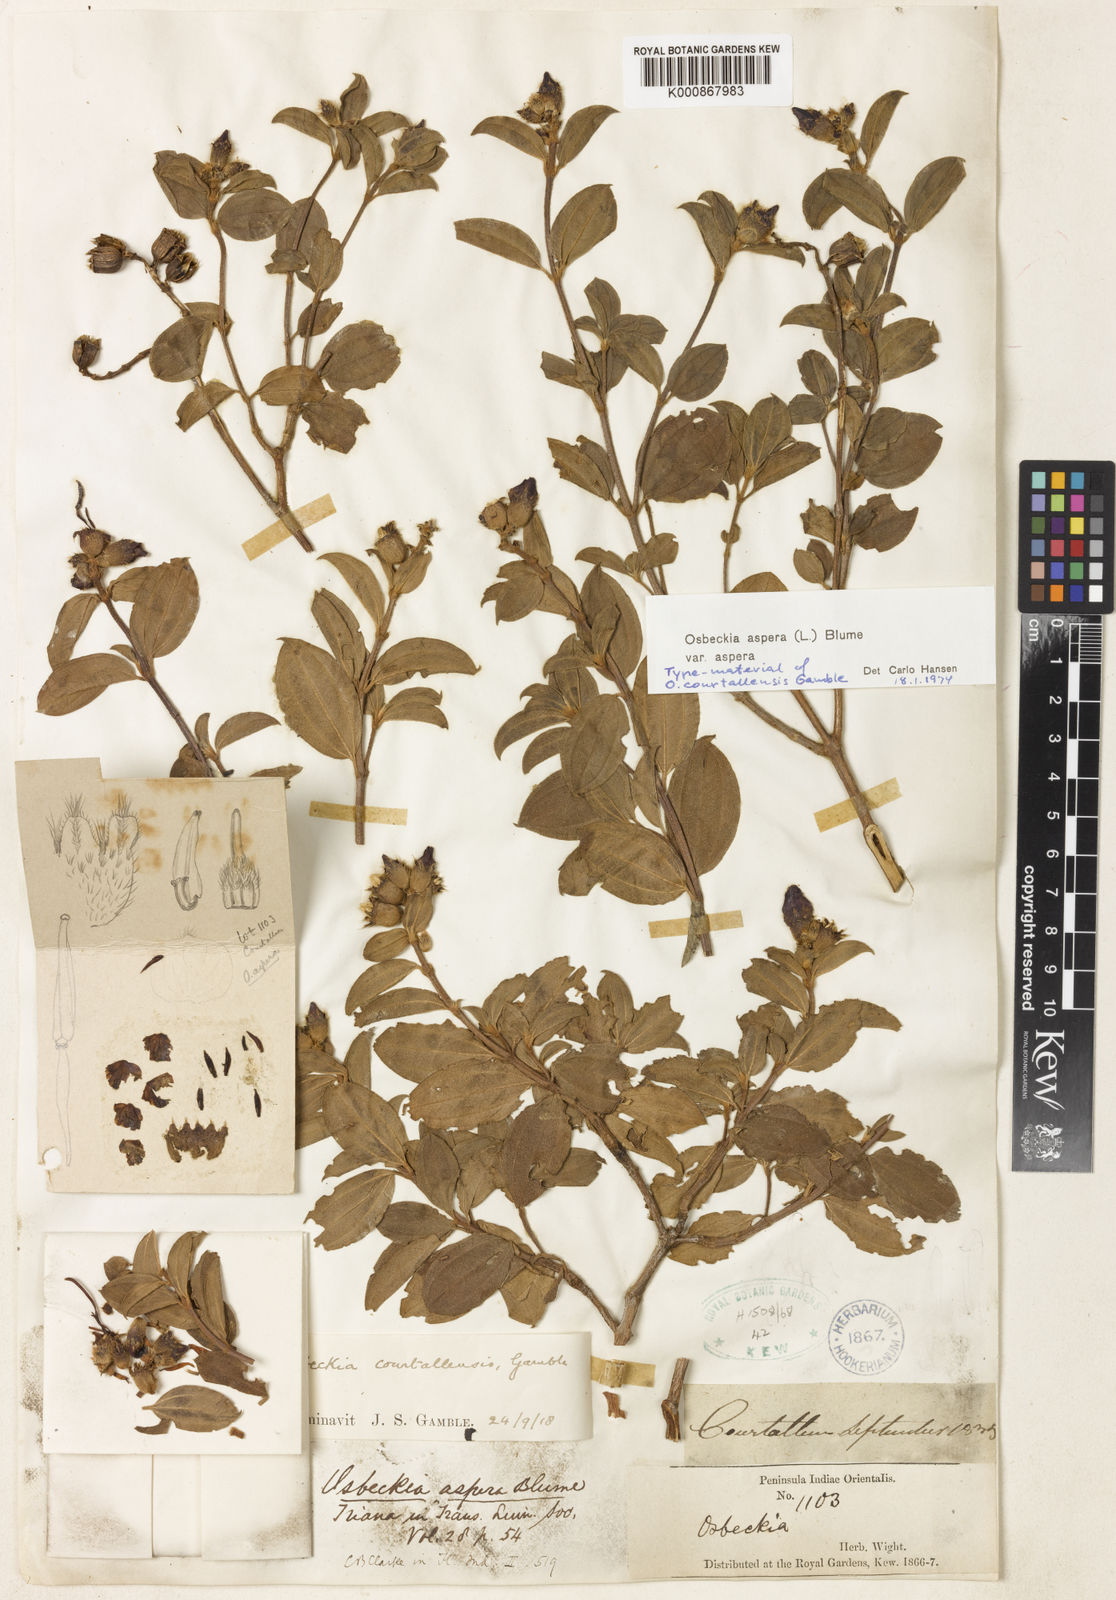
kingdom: Plantae
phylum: Tracheophyta
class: Magnoliopsida
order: Myrtales
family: Melastomataceae
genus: Osbeckia
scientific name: Osbeckia aspera
